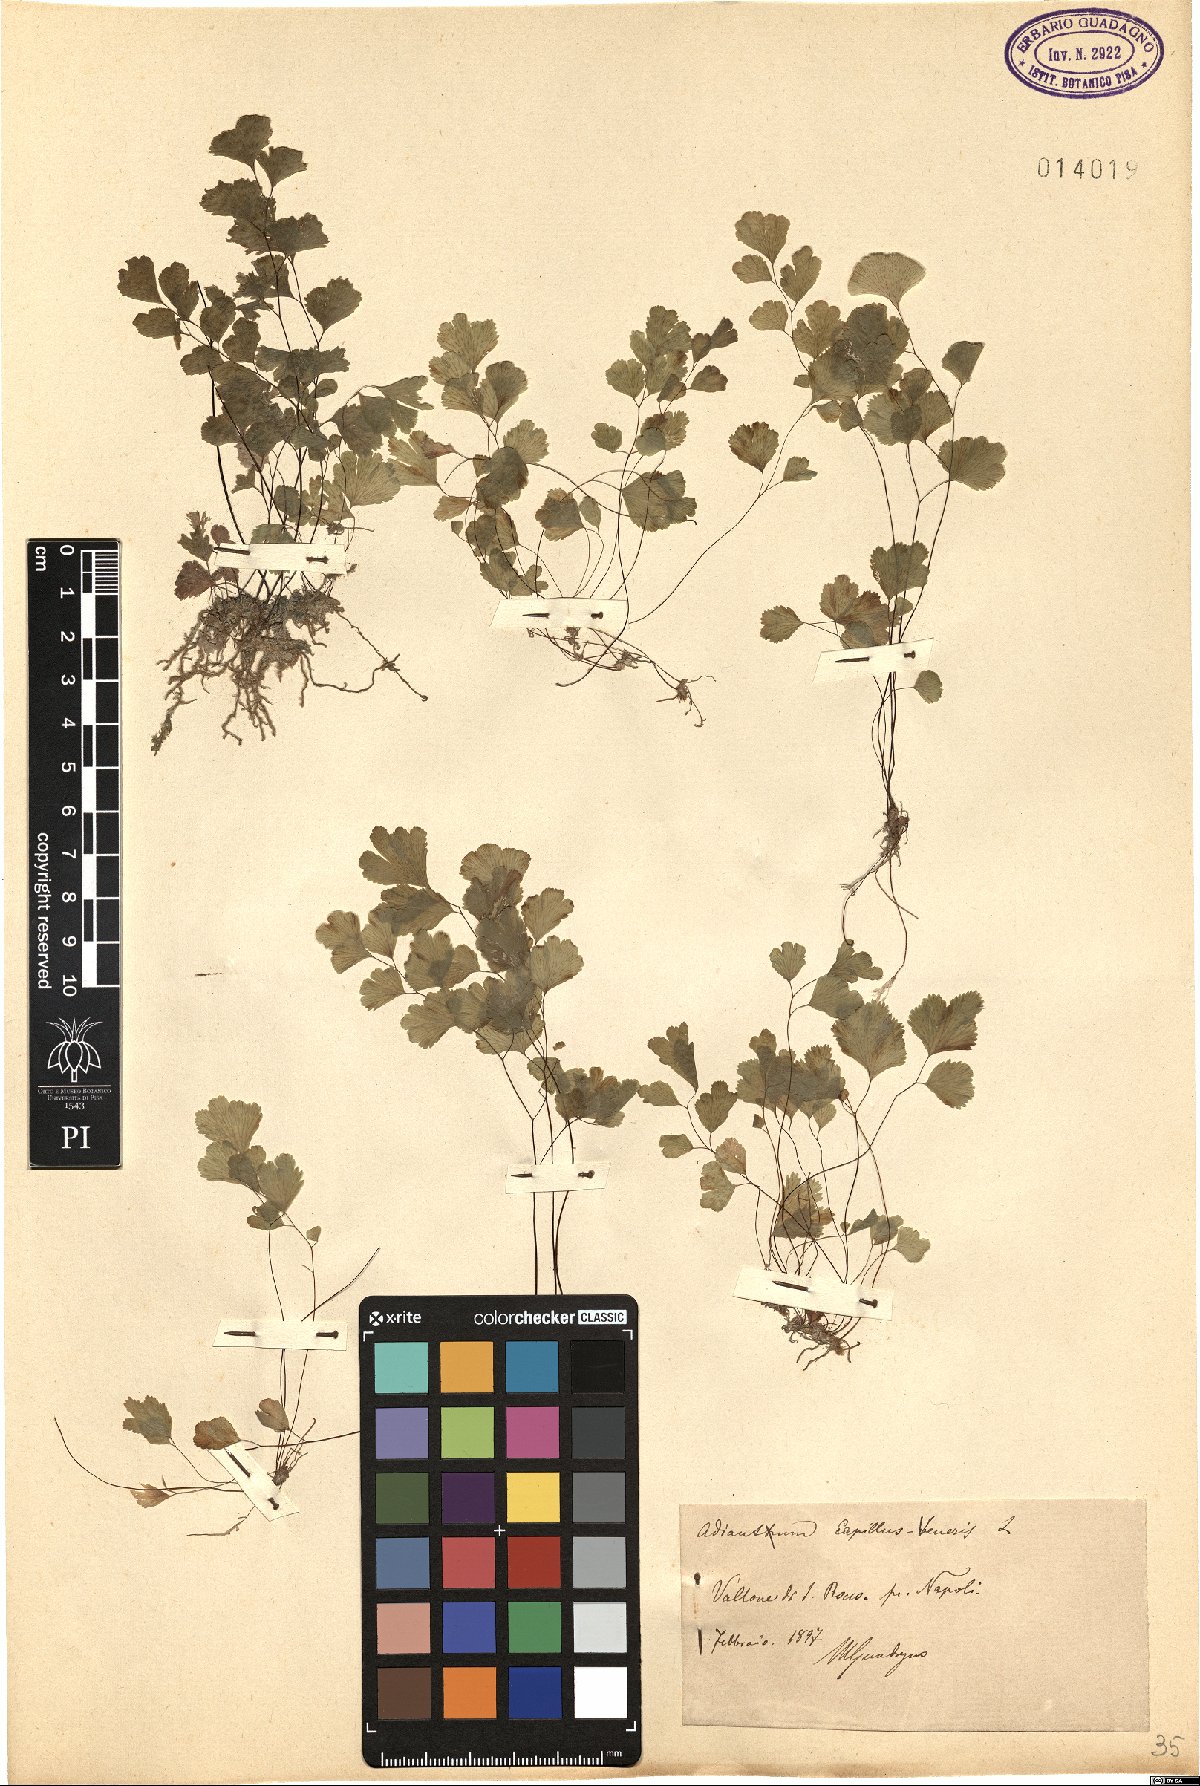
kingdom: Plantae
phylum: Tracheophyta
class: Polypodiopsida
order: Polypodiales
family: Pteridaceae
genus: Adiantum
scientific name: Adiantum capillus-veneris
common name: Maidenhair fern
